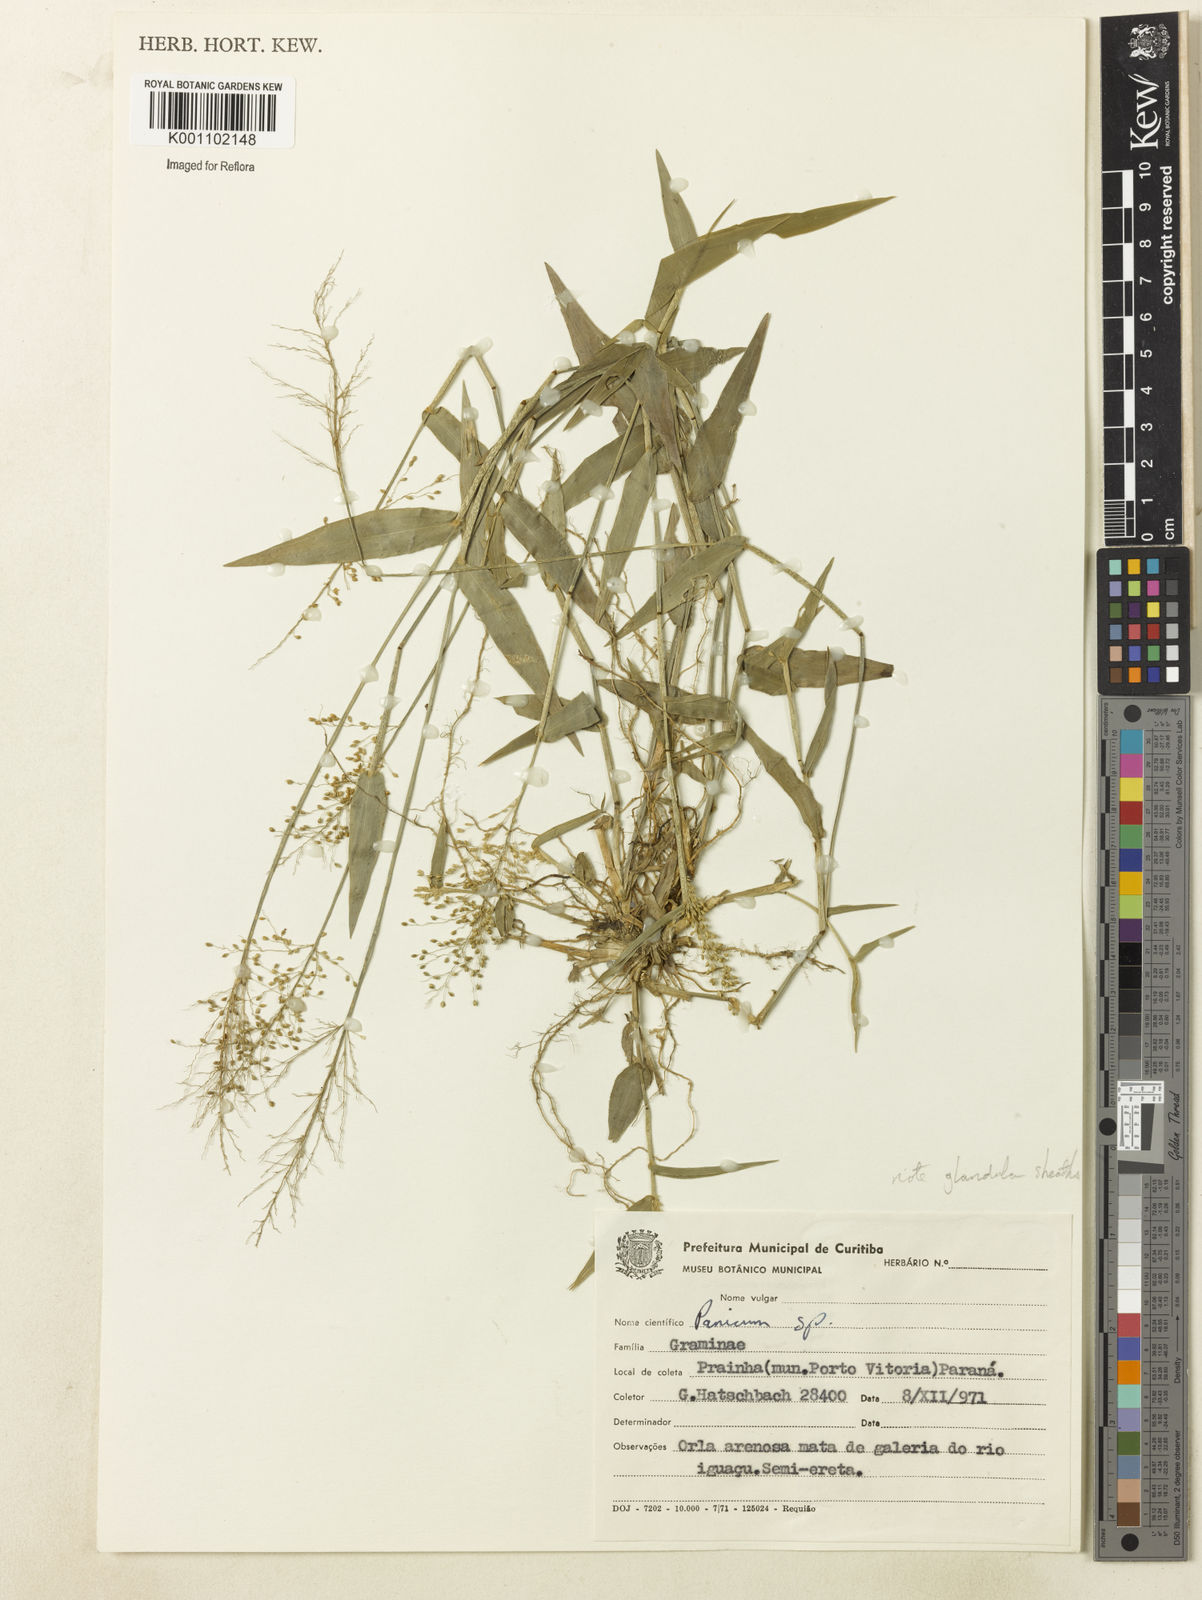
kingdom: Plantae
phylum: Tracheophyta
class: Liliopsida
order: Poales
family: Poaceae
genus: Dichanthelium
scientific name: Dichanthelium stigmosum
